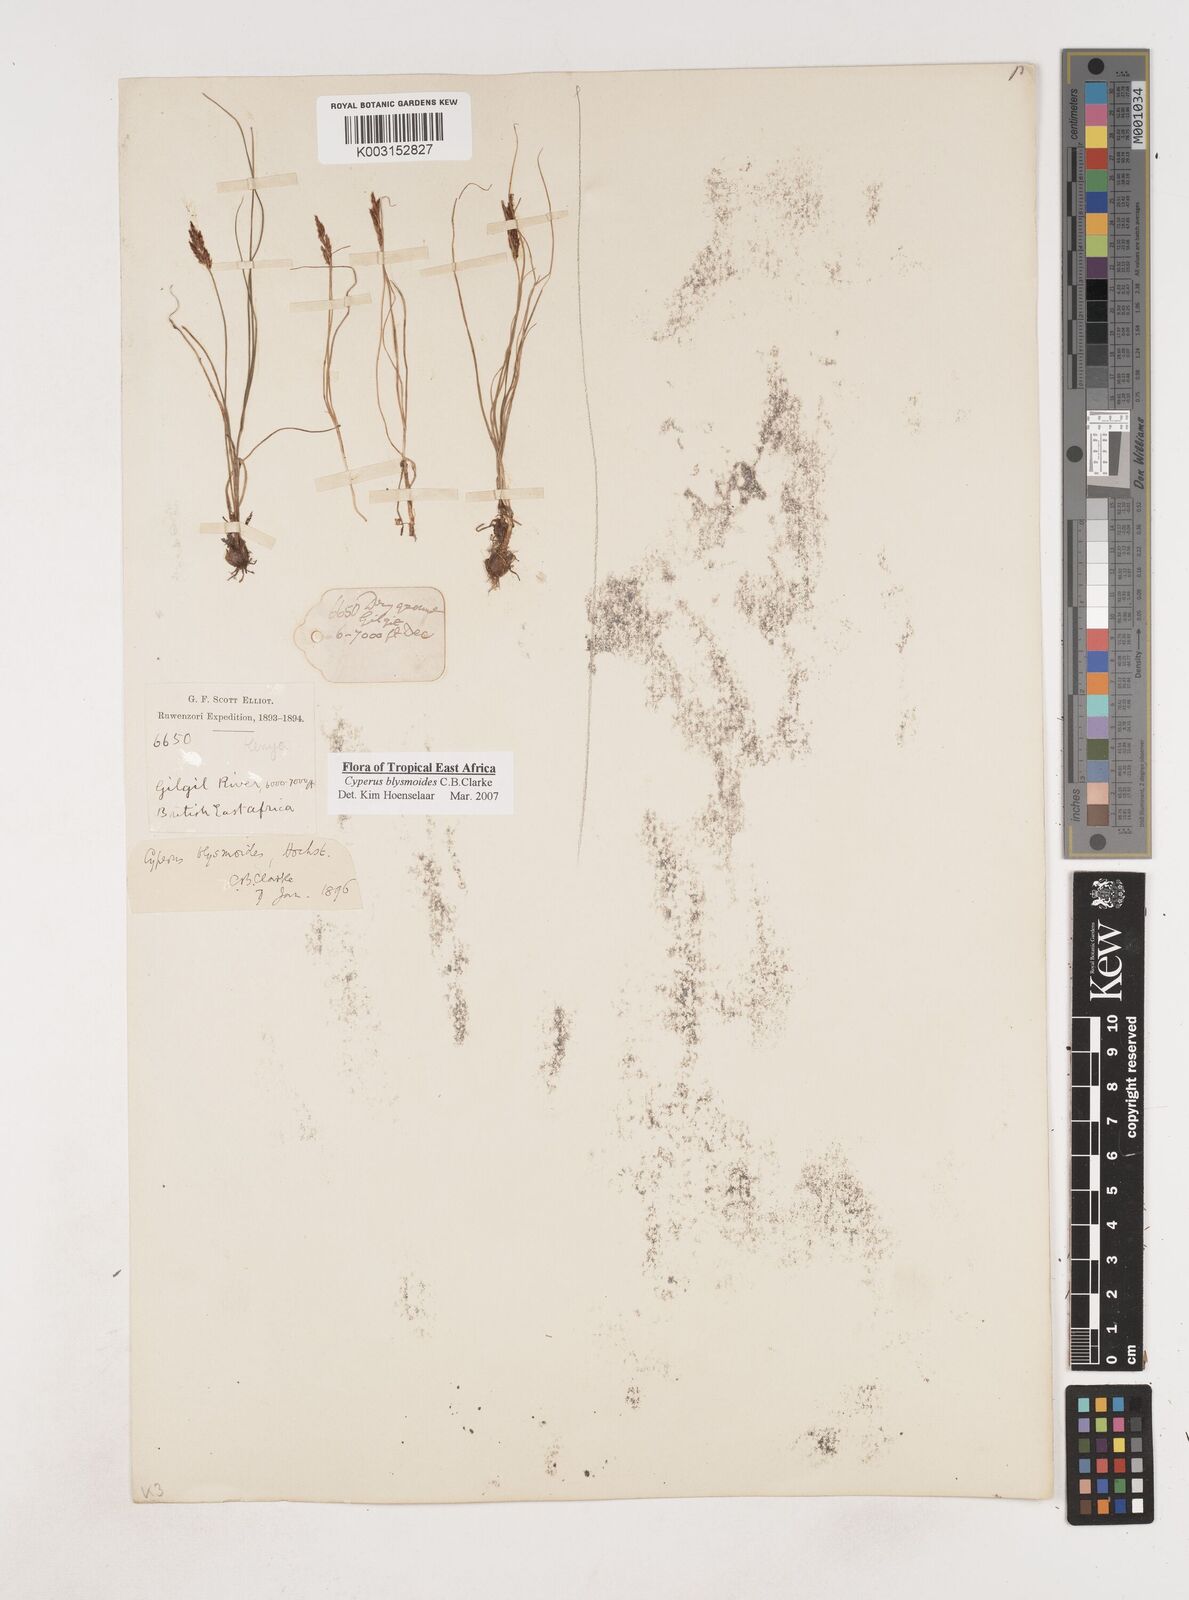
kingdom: Plantae
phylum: Tracheophyta
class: Liliopsida
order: Poales
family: Cyperaceae
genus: Cyperus
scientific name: Cyperus blysmoides
